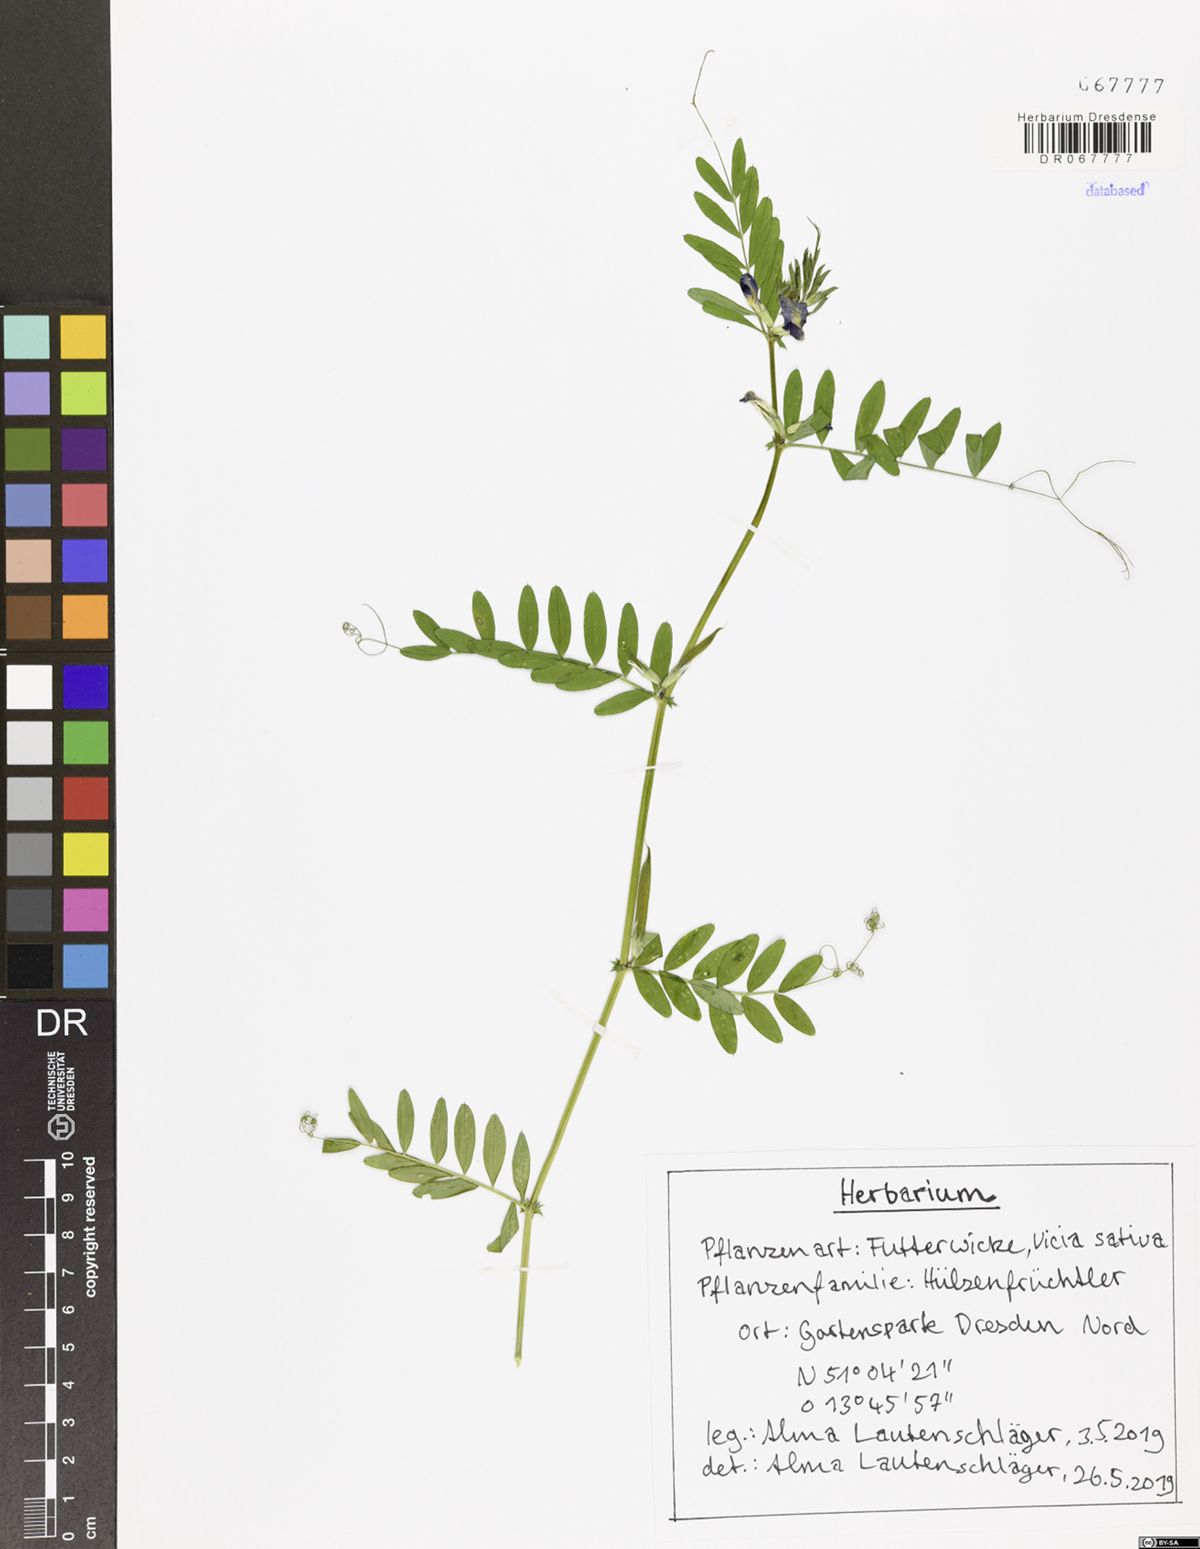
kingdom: Plantae
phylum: Tracheophyta
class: Magnoliopsida
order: Fabales
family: Fabaceae
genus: Vicia
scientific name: Vicia sativa
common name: Garden vetch
